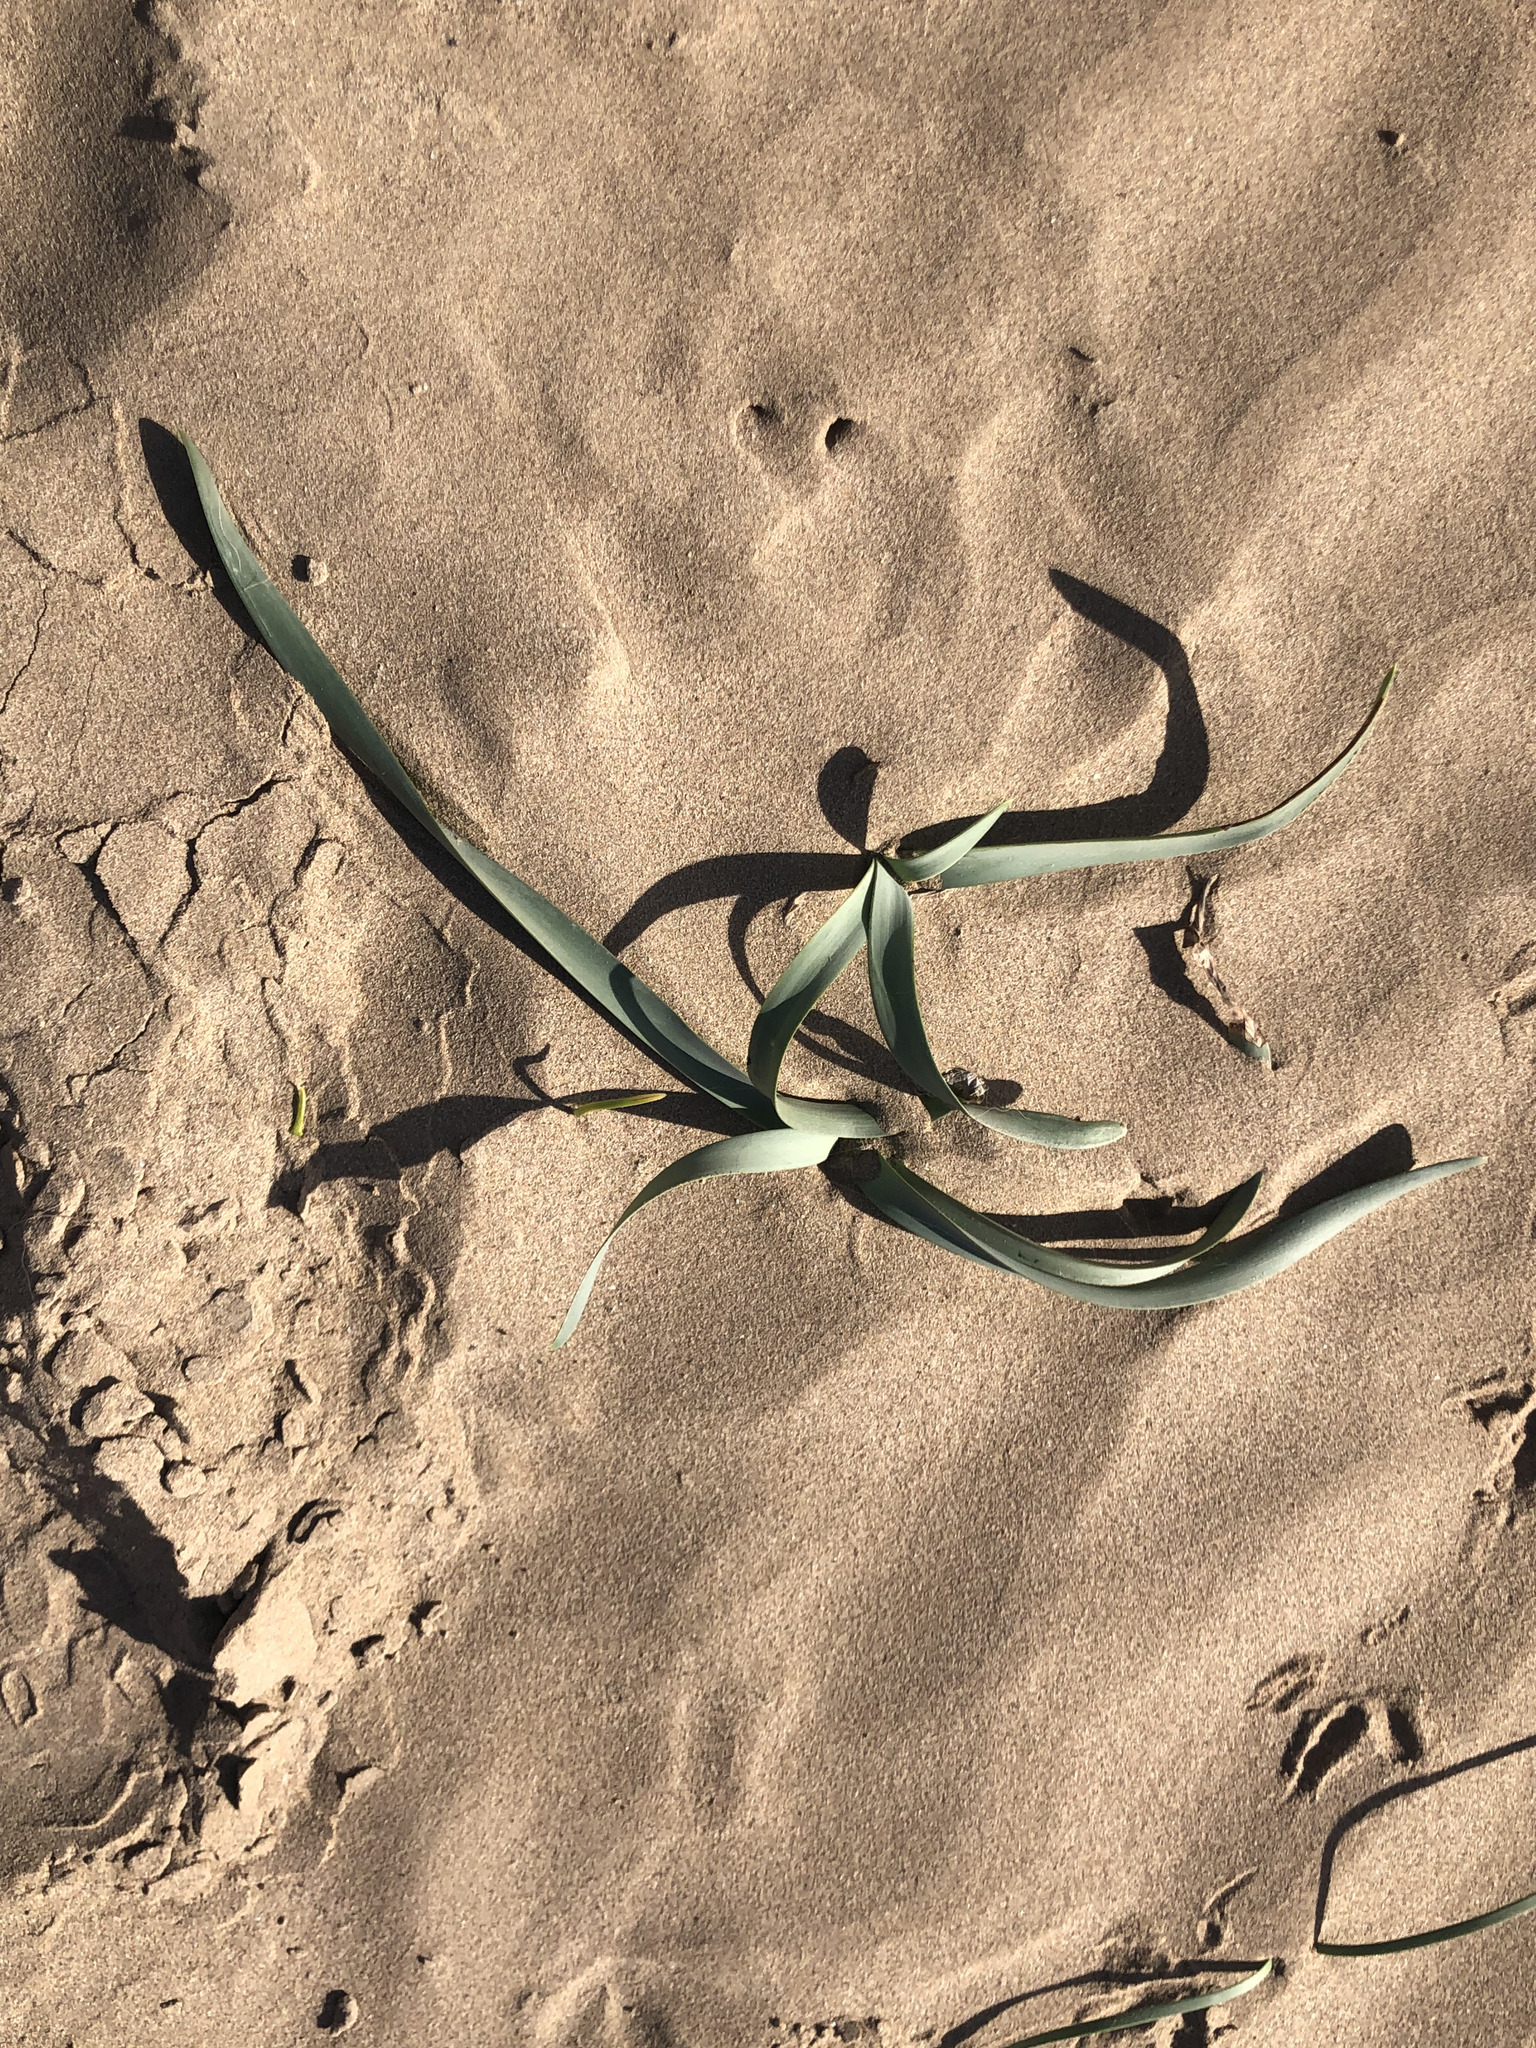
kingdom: Plantae
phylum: Tracheophyta
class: Liliopsida
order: Asparagales
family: Amaryllidaceae
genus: Pancratium
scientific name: Pancratium maritimum
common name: Sea-daffodil
